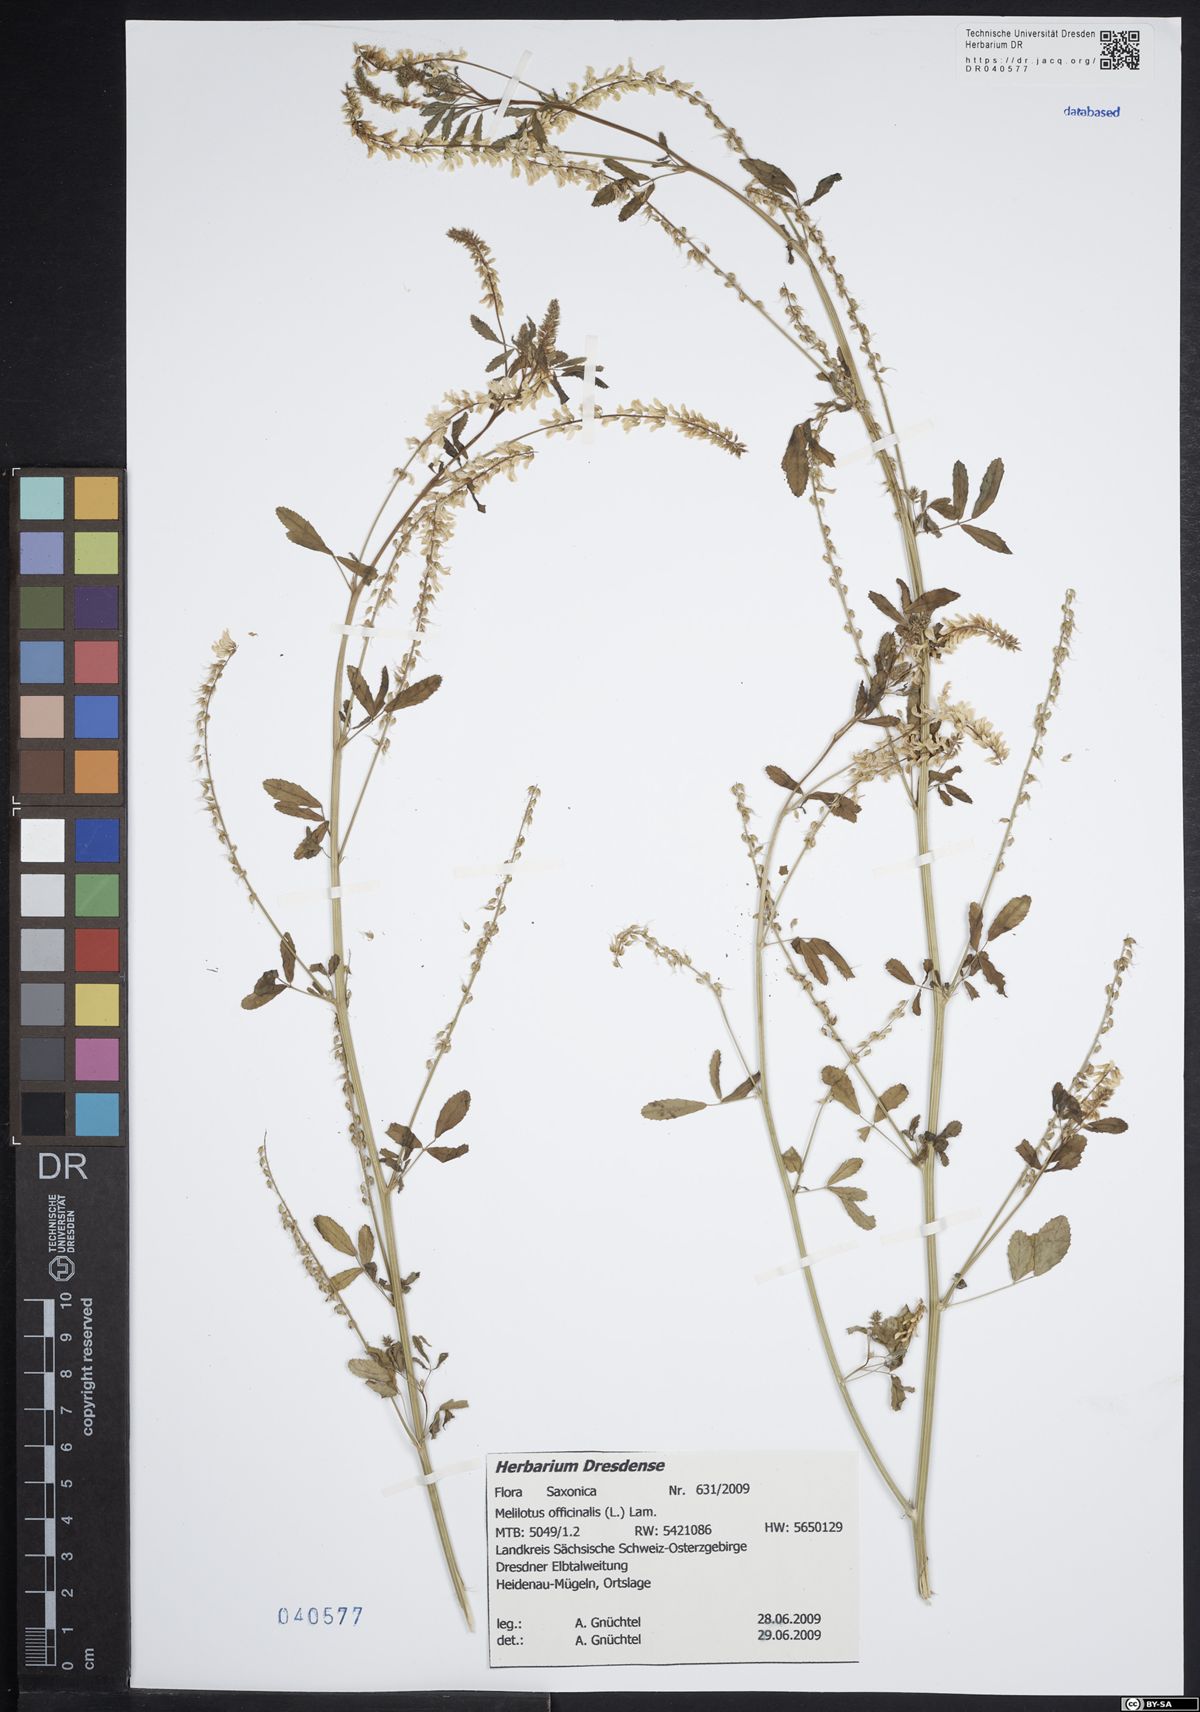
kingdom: Plantae
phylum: Tracheophyta
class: Magnoliopsida
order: Fabales
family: Fabaceae
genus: Melilotus
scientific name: Melilotus officinalis
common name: Sweetclover
